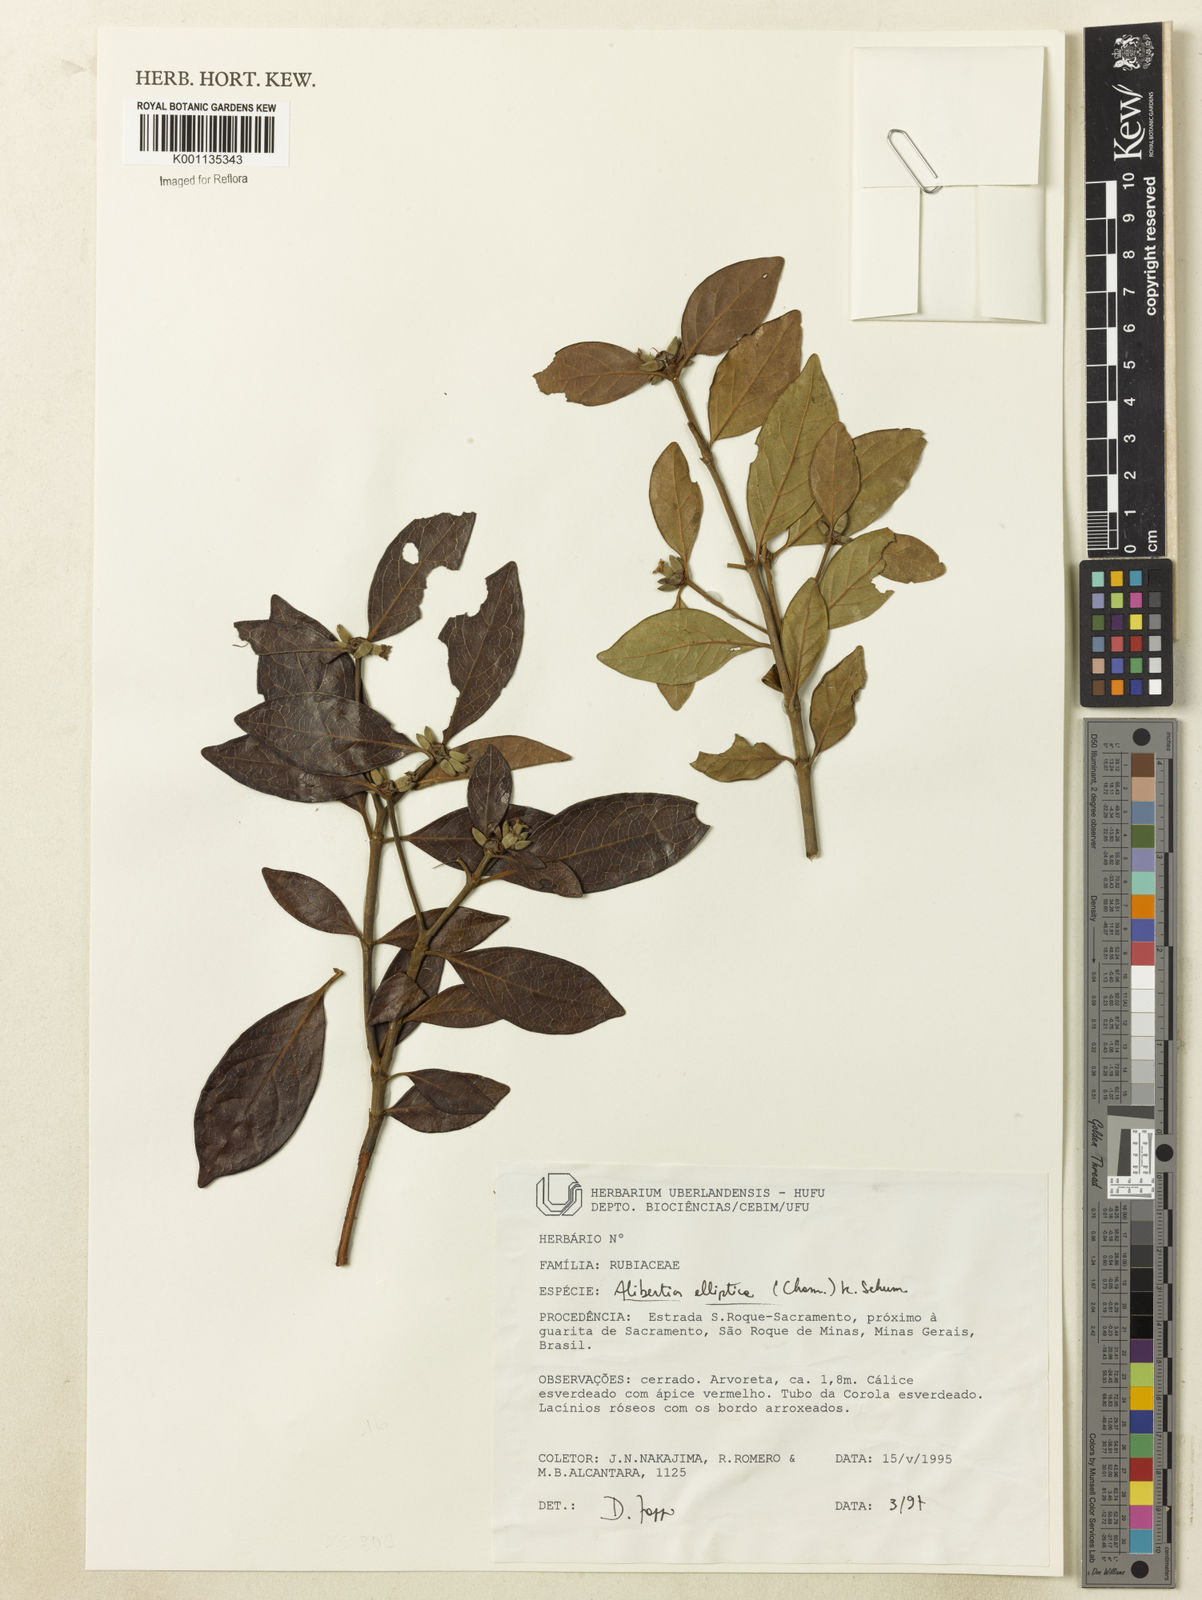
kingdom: Plantae
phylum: Tracheophyta
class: Magnoliopsida
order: Gentianales
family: Rubiaceae
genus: Cordiera
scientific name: Cordiera elliptica
